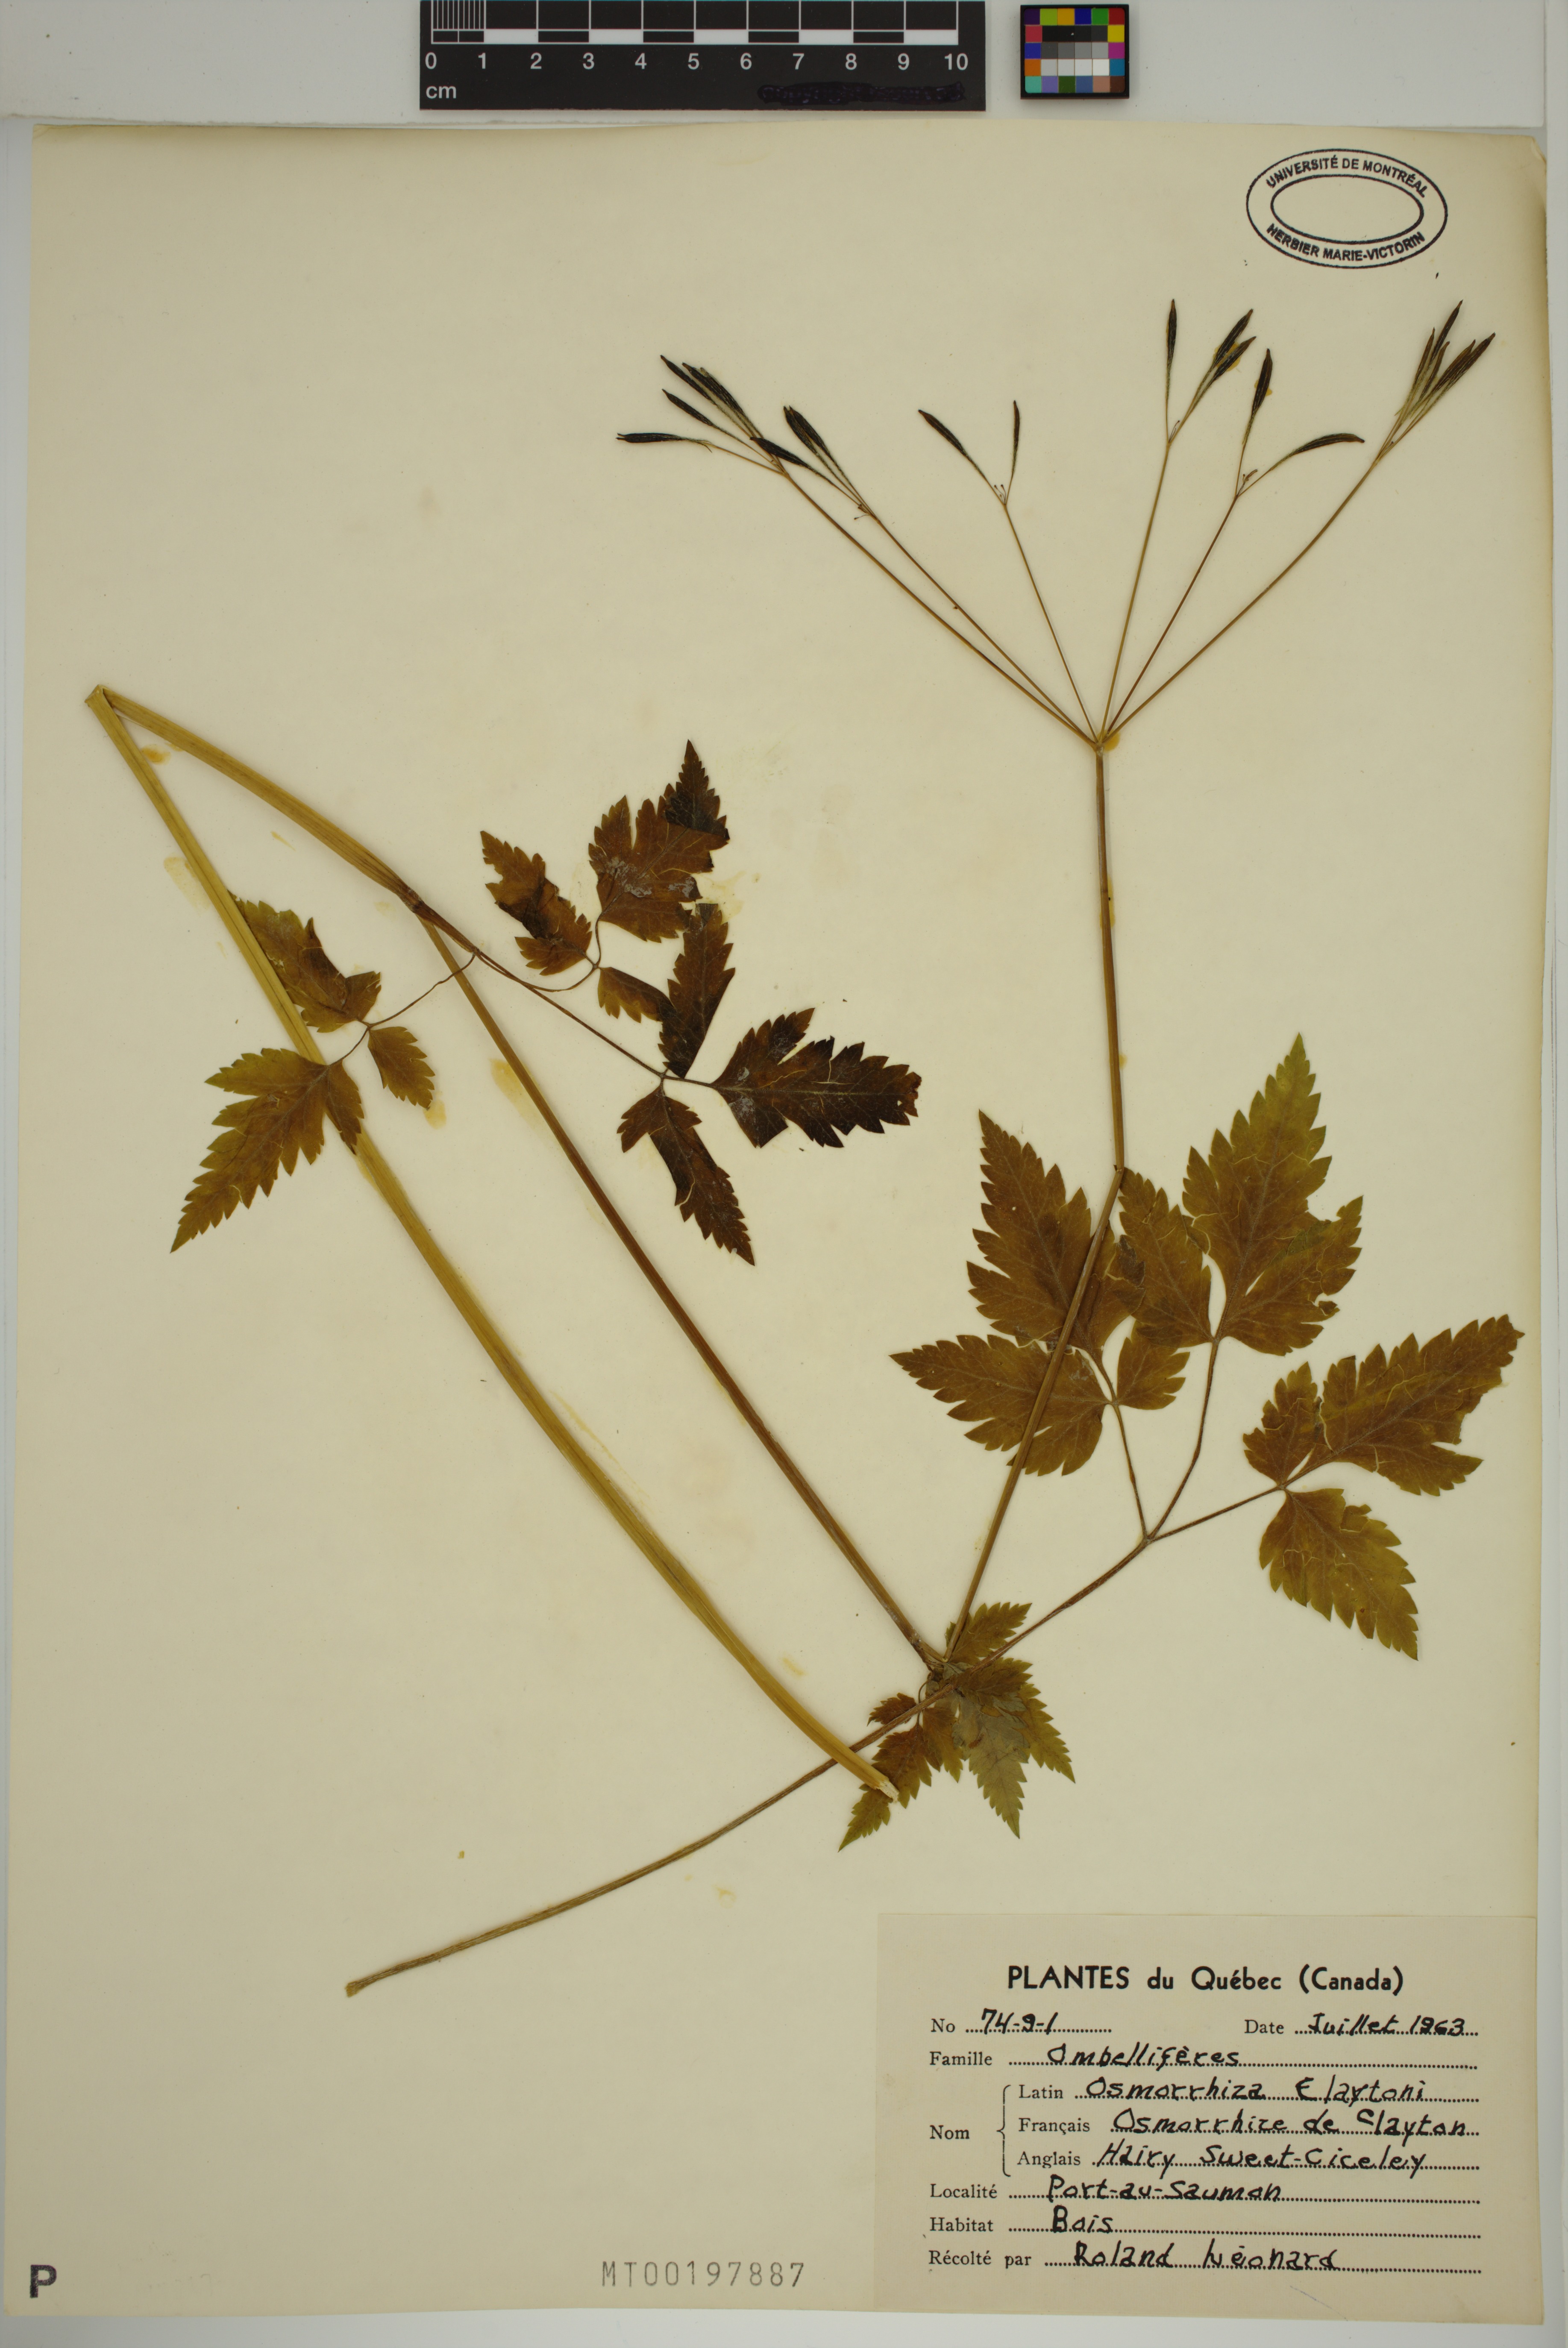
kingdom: Plantae
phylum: Tracheophyta
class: Magnoliopsida
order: Apiales
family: Apiaceae
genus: Osmorhiza
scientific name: Osmorhiza claytonii
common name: Hairy sweet cicely
